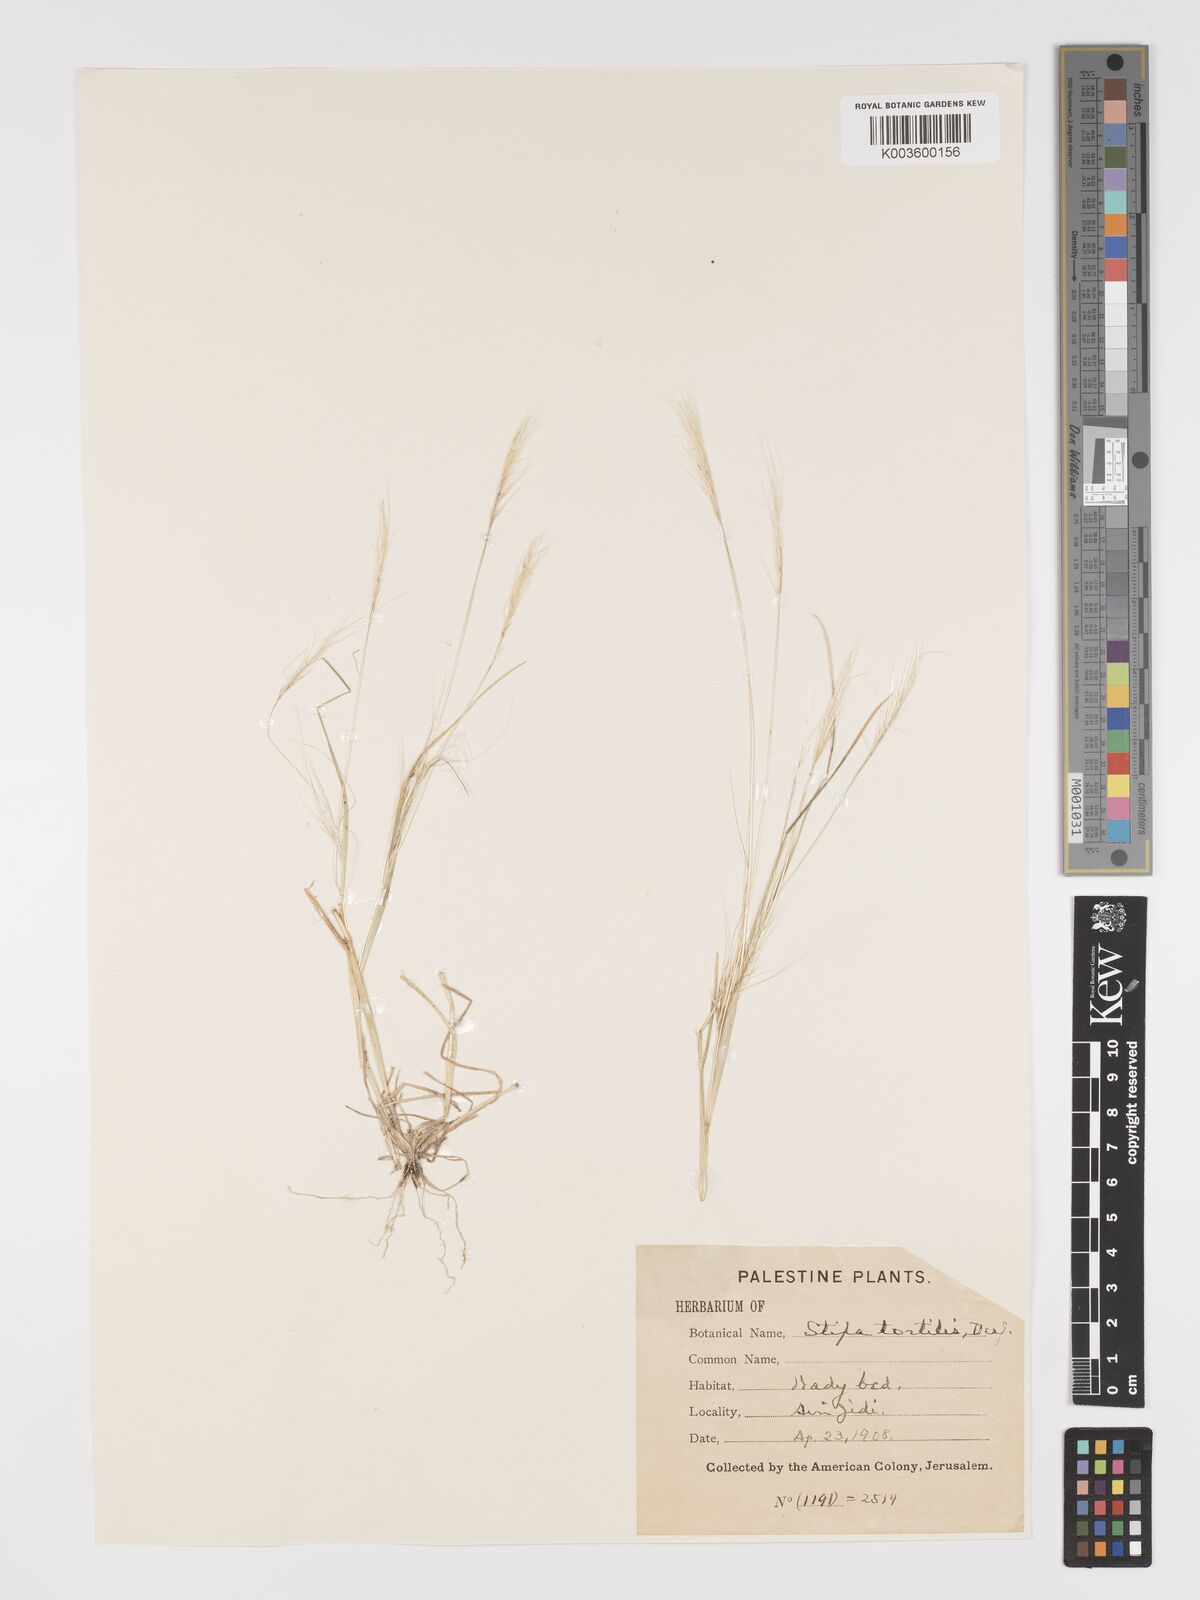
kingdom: Plantae
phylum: Tracheophyta
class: Liliopsida
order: Poales
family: Poaceae
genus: Stipellula
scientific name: Stipellula capensis
